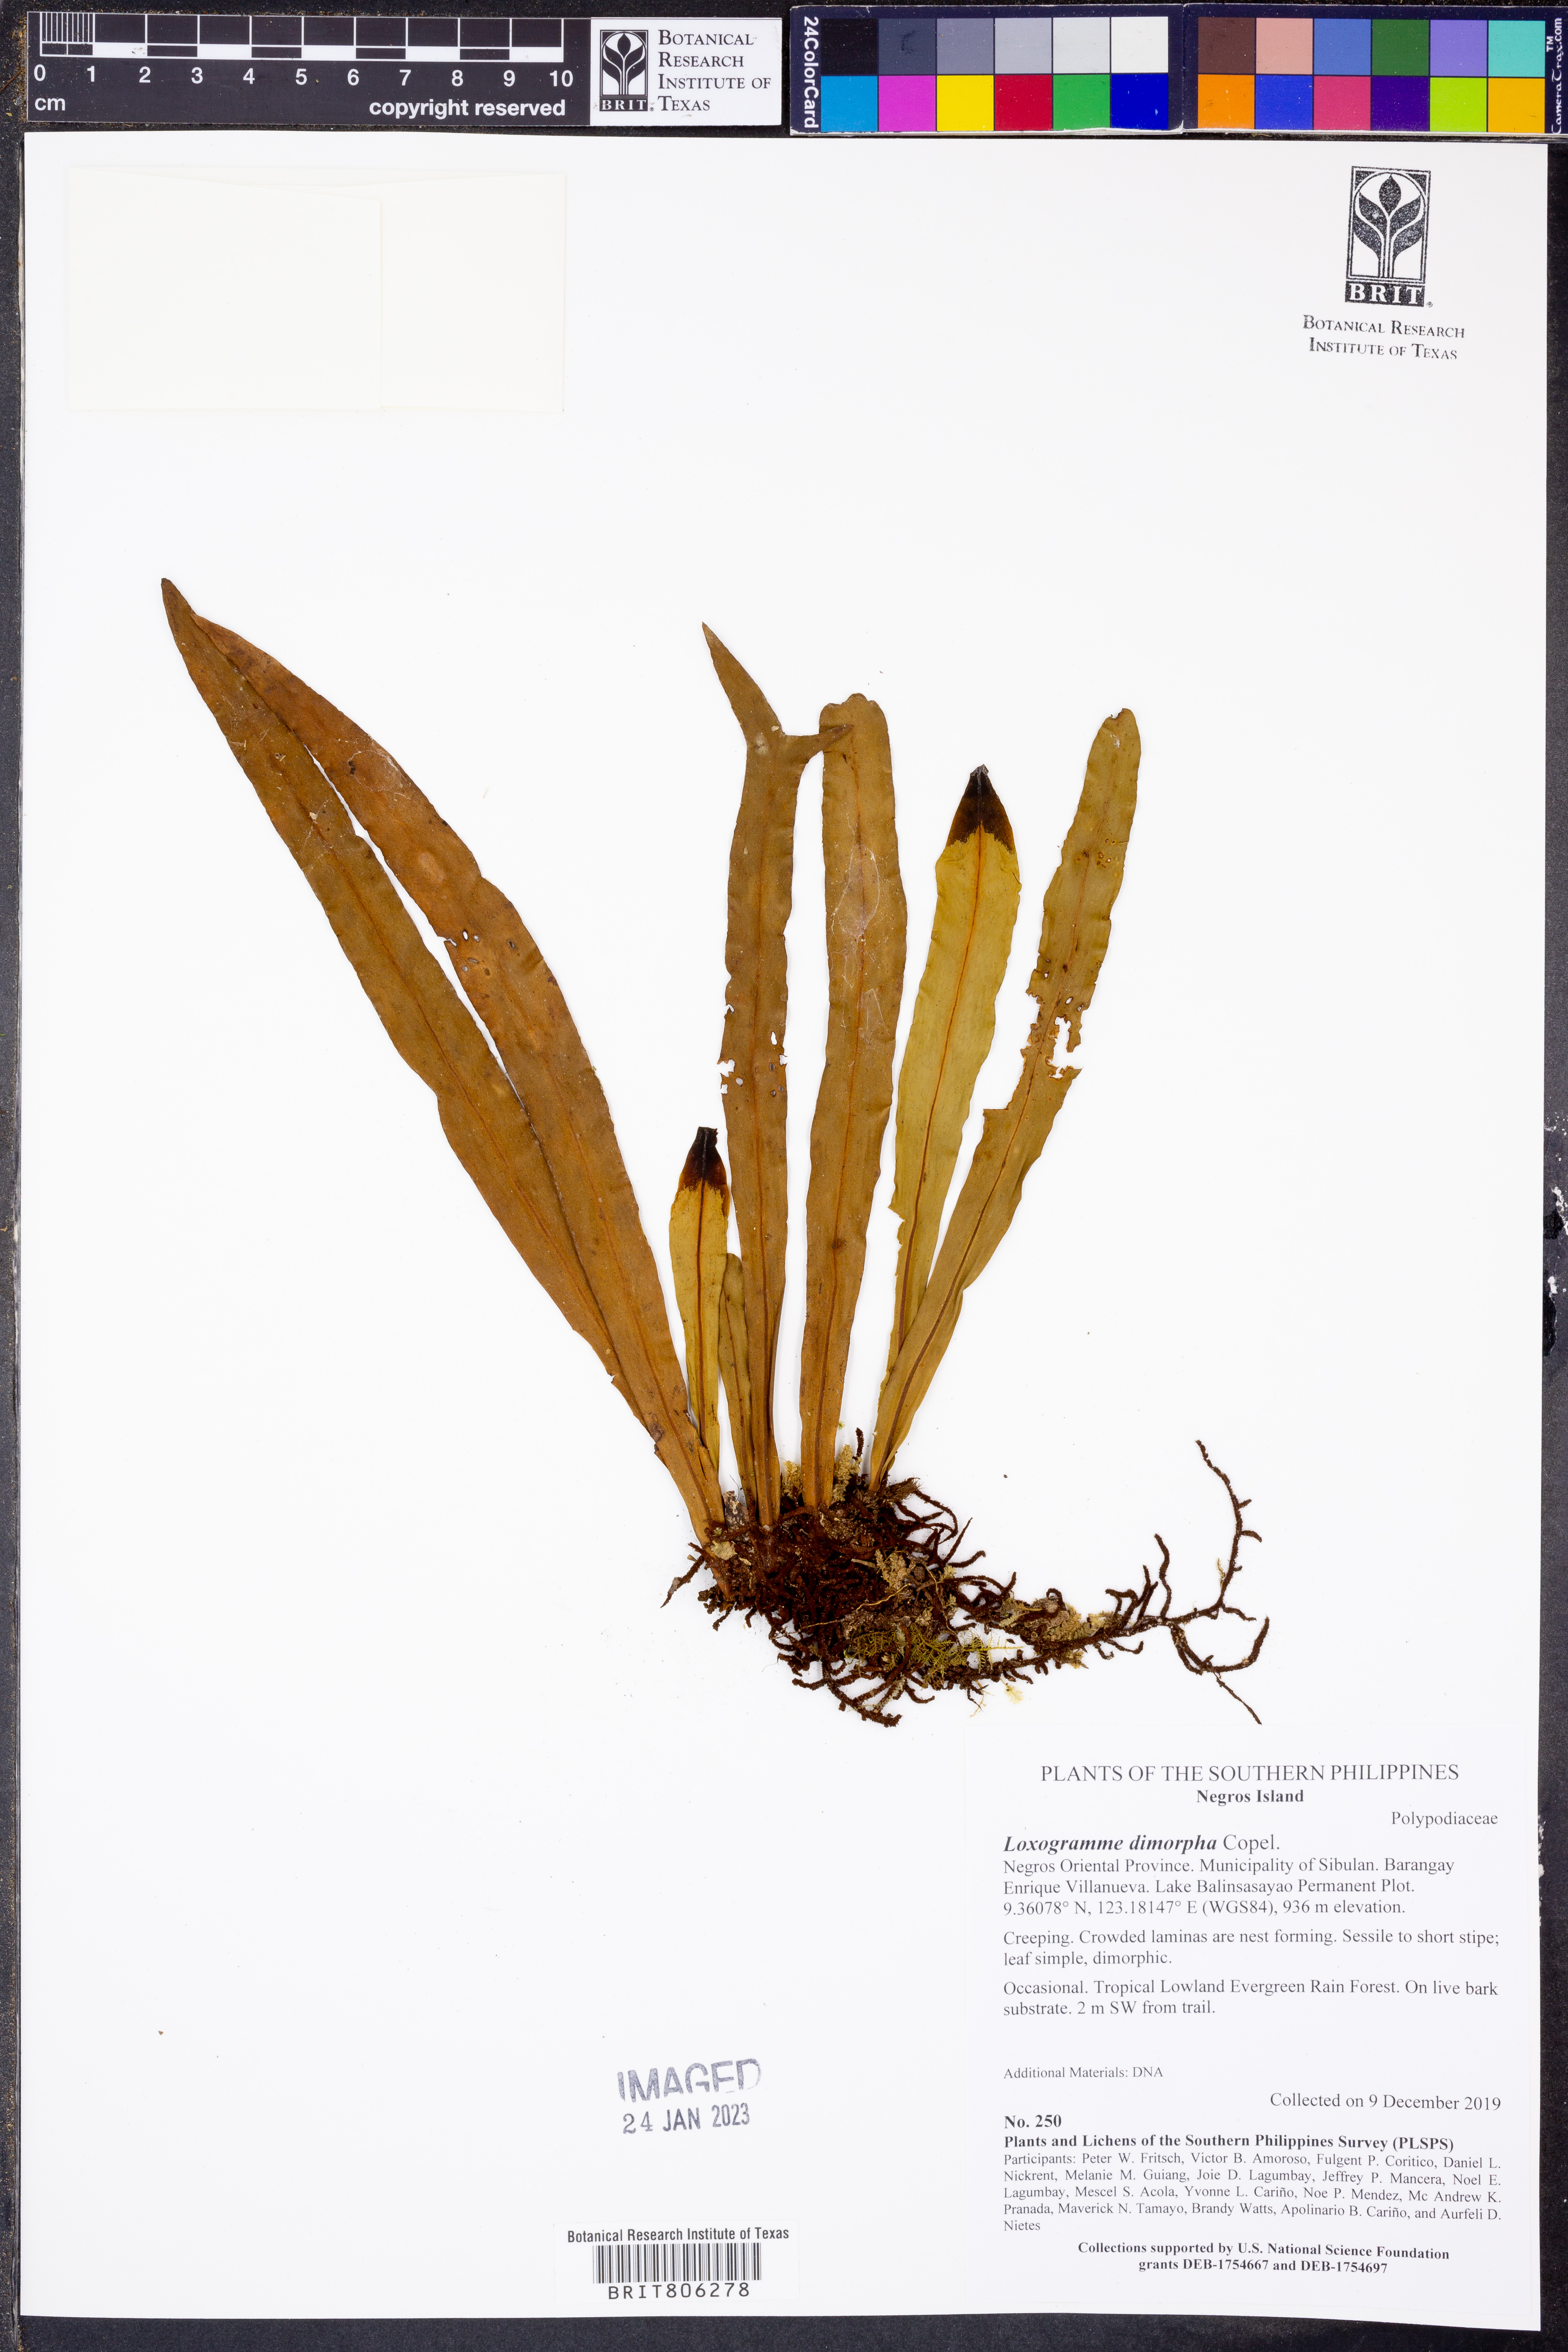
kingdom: Plantae
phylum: Tracheophyta
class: Polypodiopsida
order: Polypodiales
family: Polypodiaceae
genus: Loxogramme
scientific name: Loxogramme dimorpha
